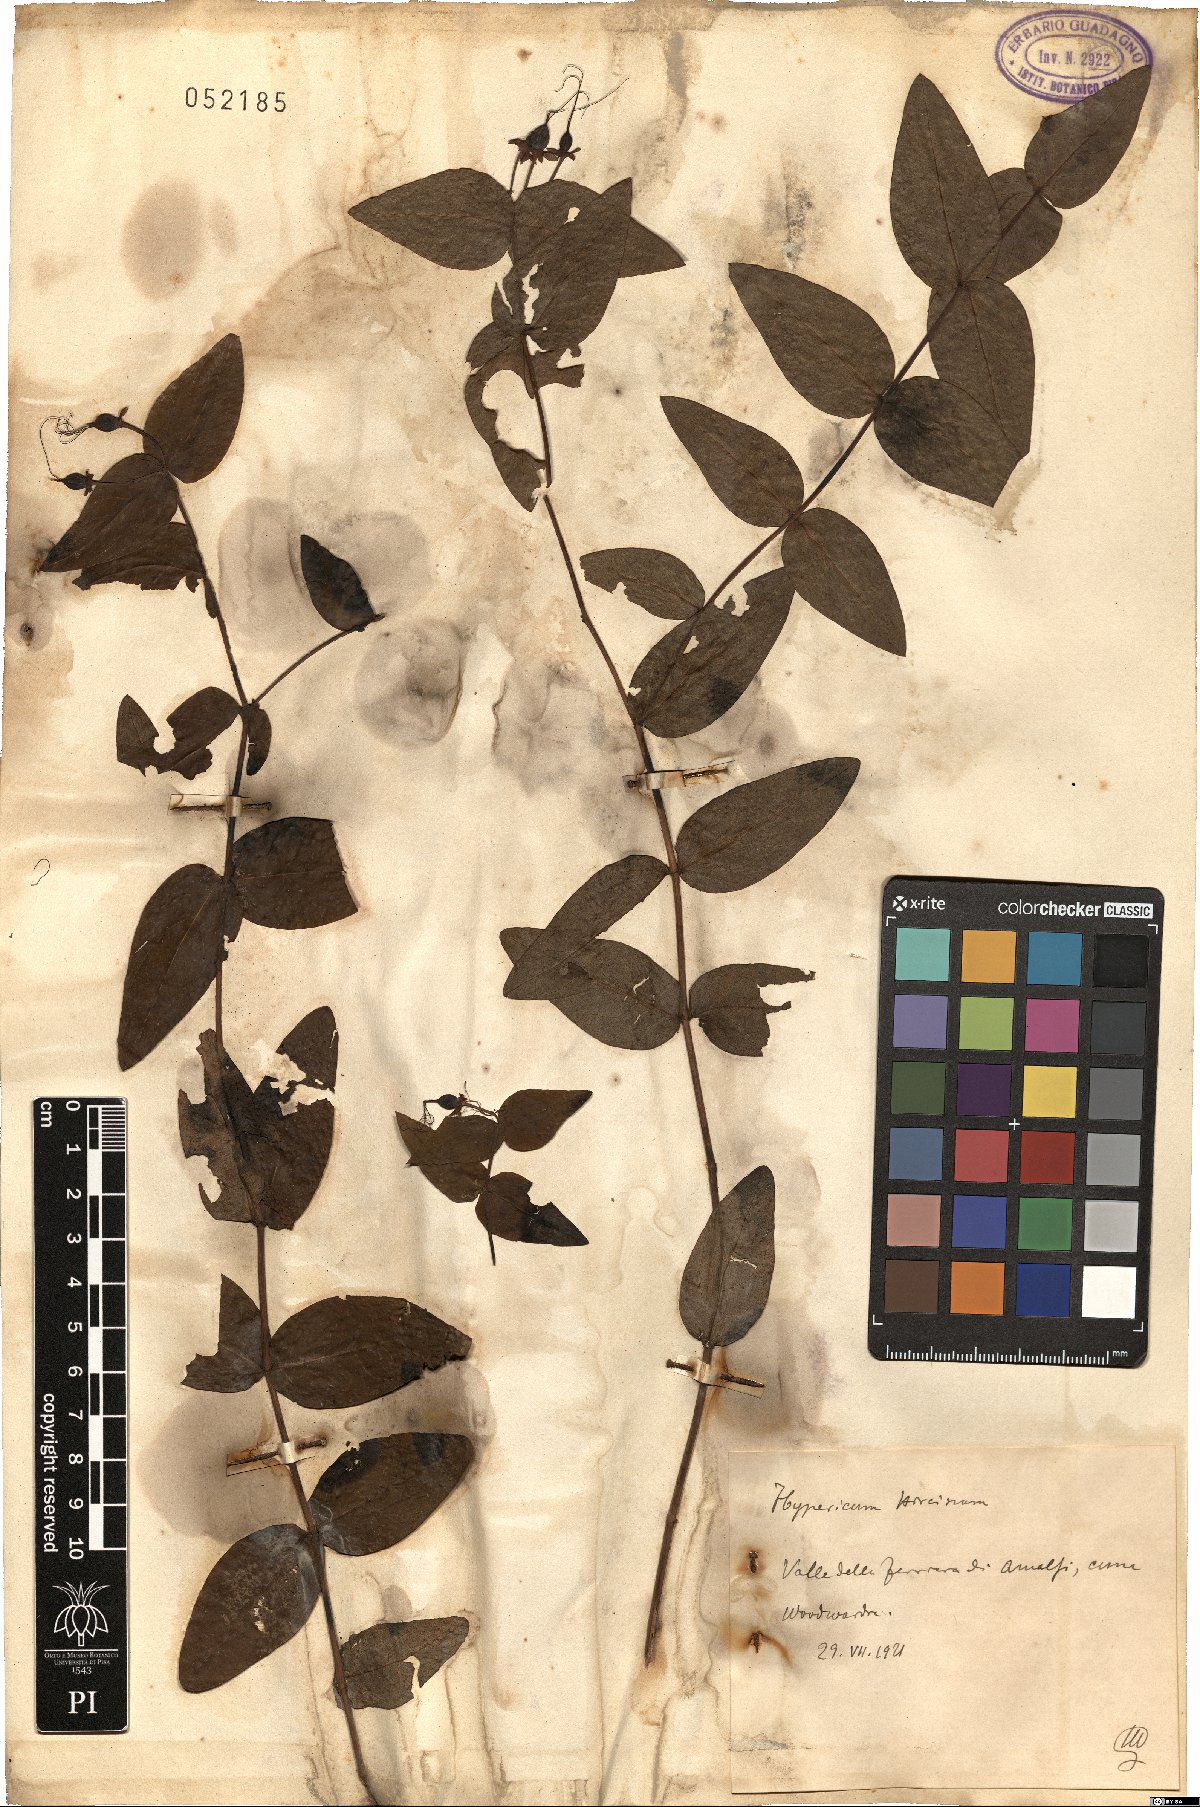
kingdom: Plantae
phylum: Tracheophyta
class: Magnoliopsida
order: Malpighiales
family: Hypericaceae
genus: Hypericum
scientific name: Hypericum hircinum
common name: Stinking tutsan
